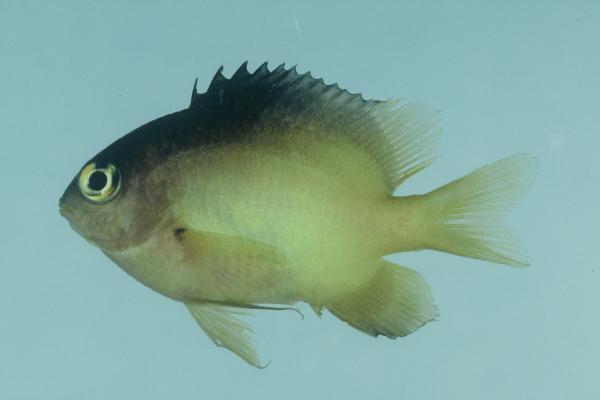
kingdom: Animalia
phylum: Chordata
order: Perciformes
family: Pomacentridae
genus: Stegastes
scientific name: Stegastes nigricans
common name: Dusky gregory
